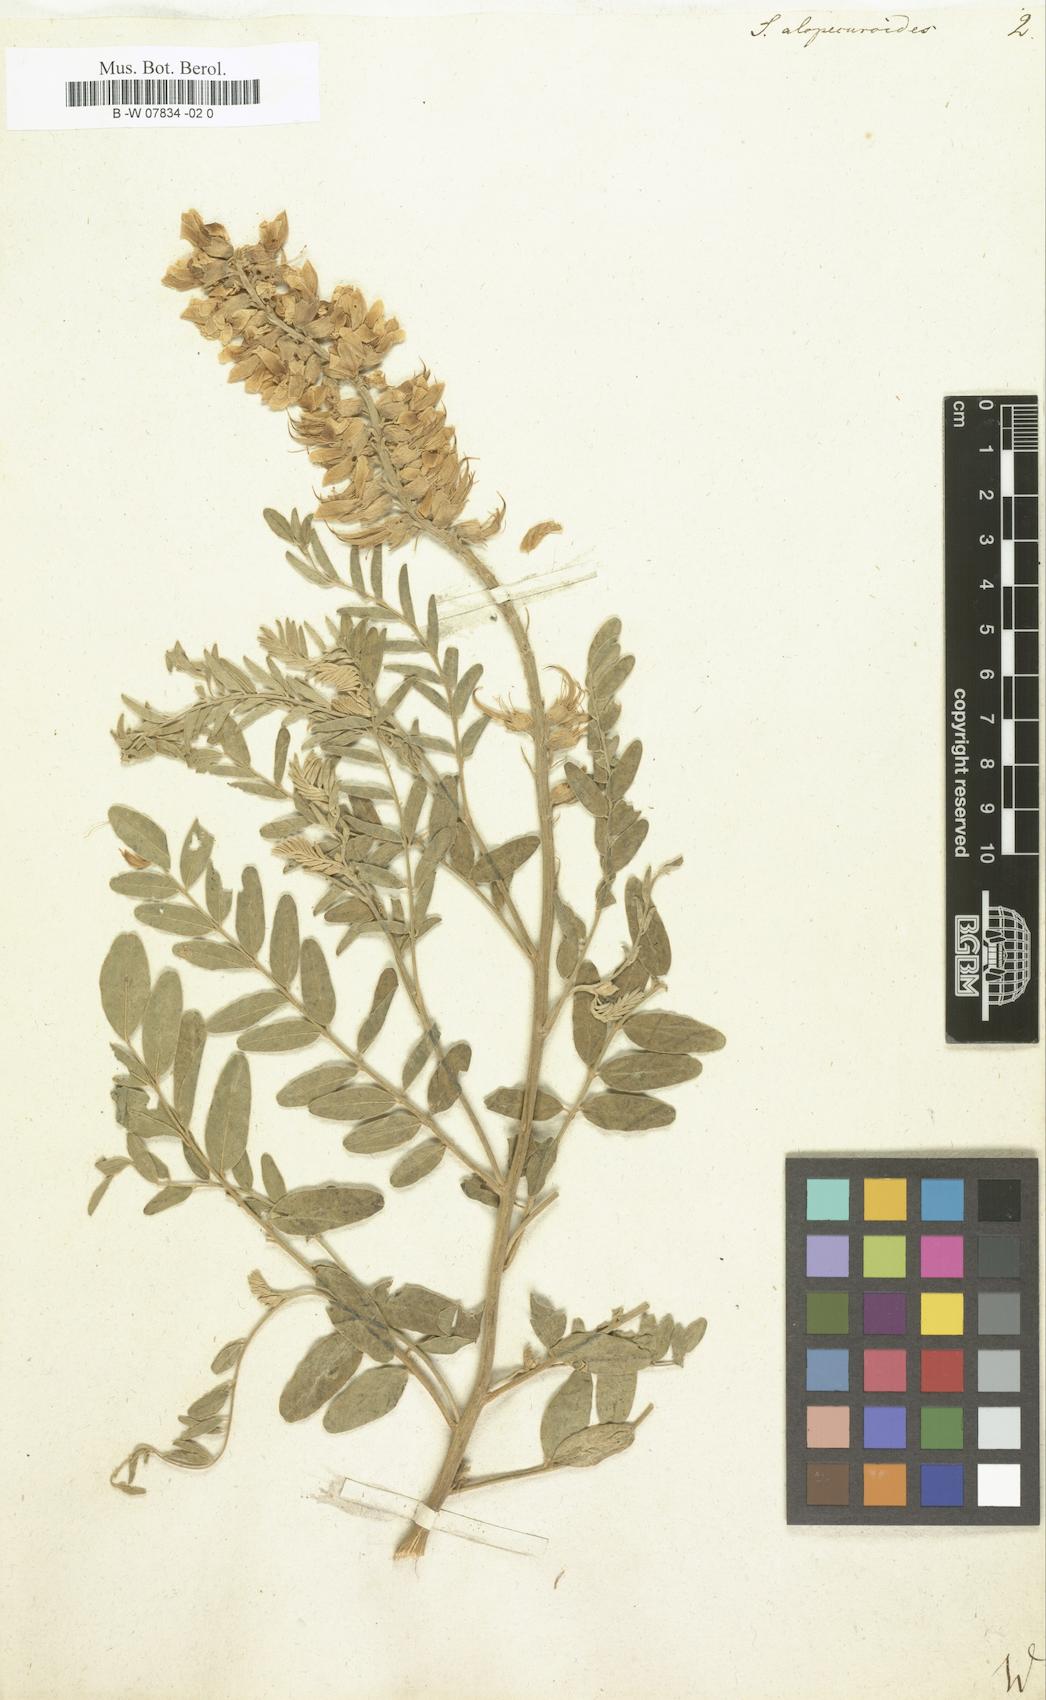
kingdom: Plantae
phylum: Tracheophyta
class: Magnoliopsida
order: Fabales
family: Fabaceae
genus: Sophora
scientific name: Sophora alopecuroides
